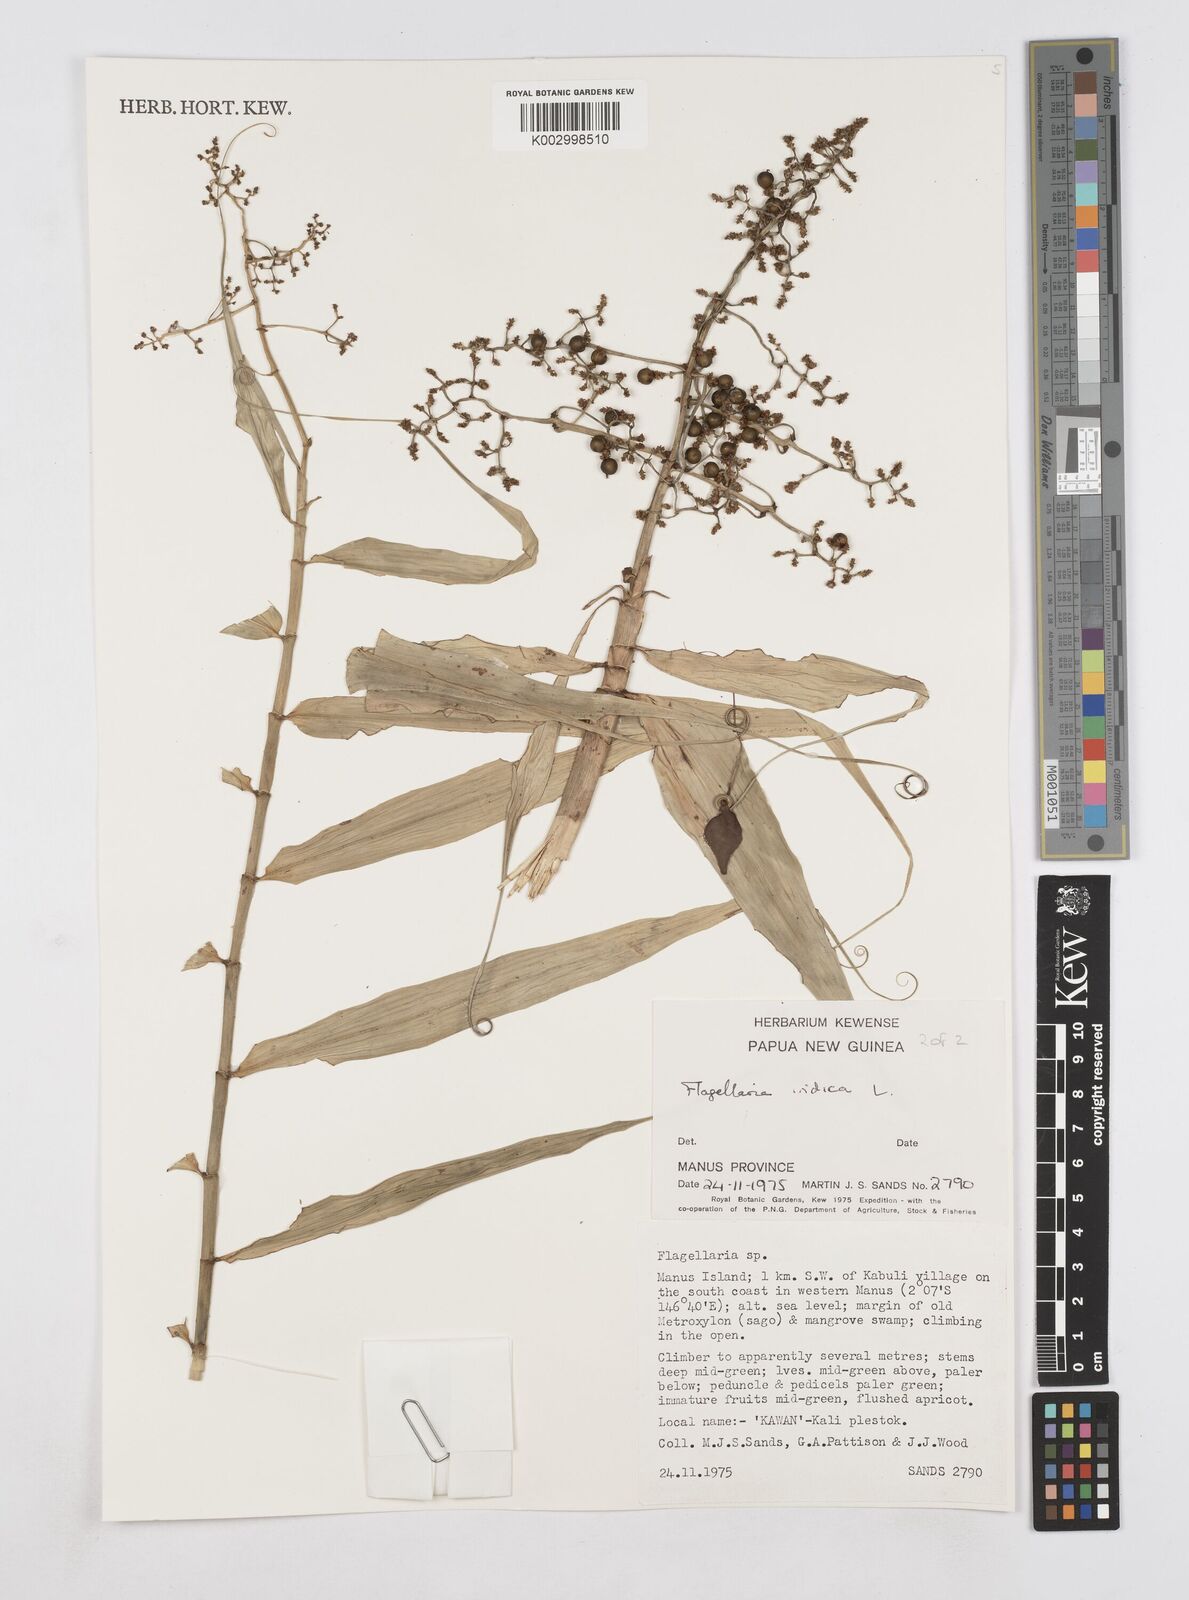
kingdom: Plantae
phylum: Tracheophyta
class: Liliopsida
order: Poales
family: Flagellariaceae
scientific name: Flagellariaceae
